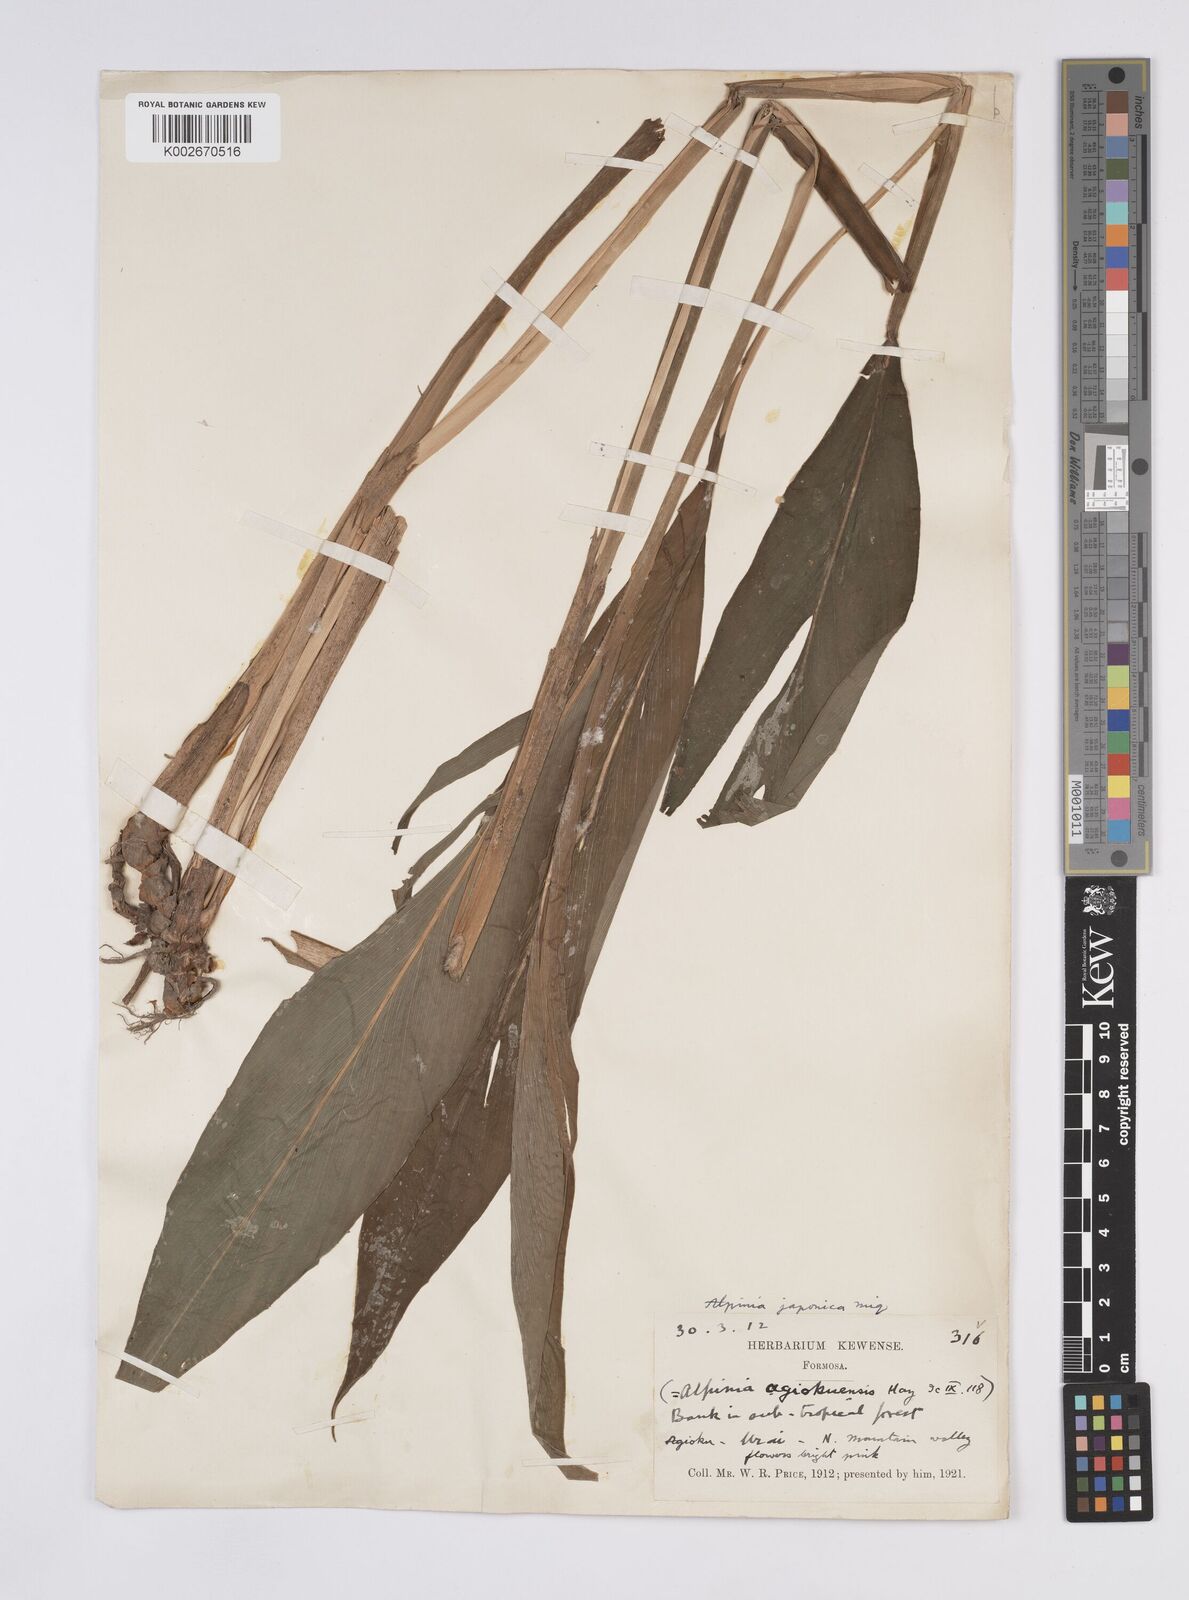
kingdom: Plantae
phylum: Tracheophyta
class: Liliopsida
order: Zingiberales
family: Zingiberaceae
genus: Alpinia
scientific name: Alpinia japonica
